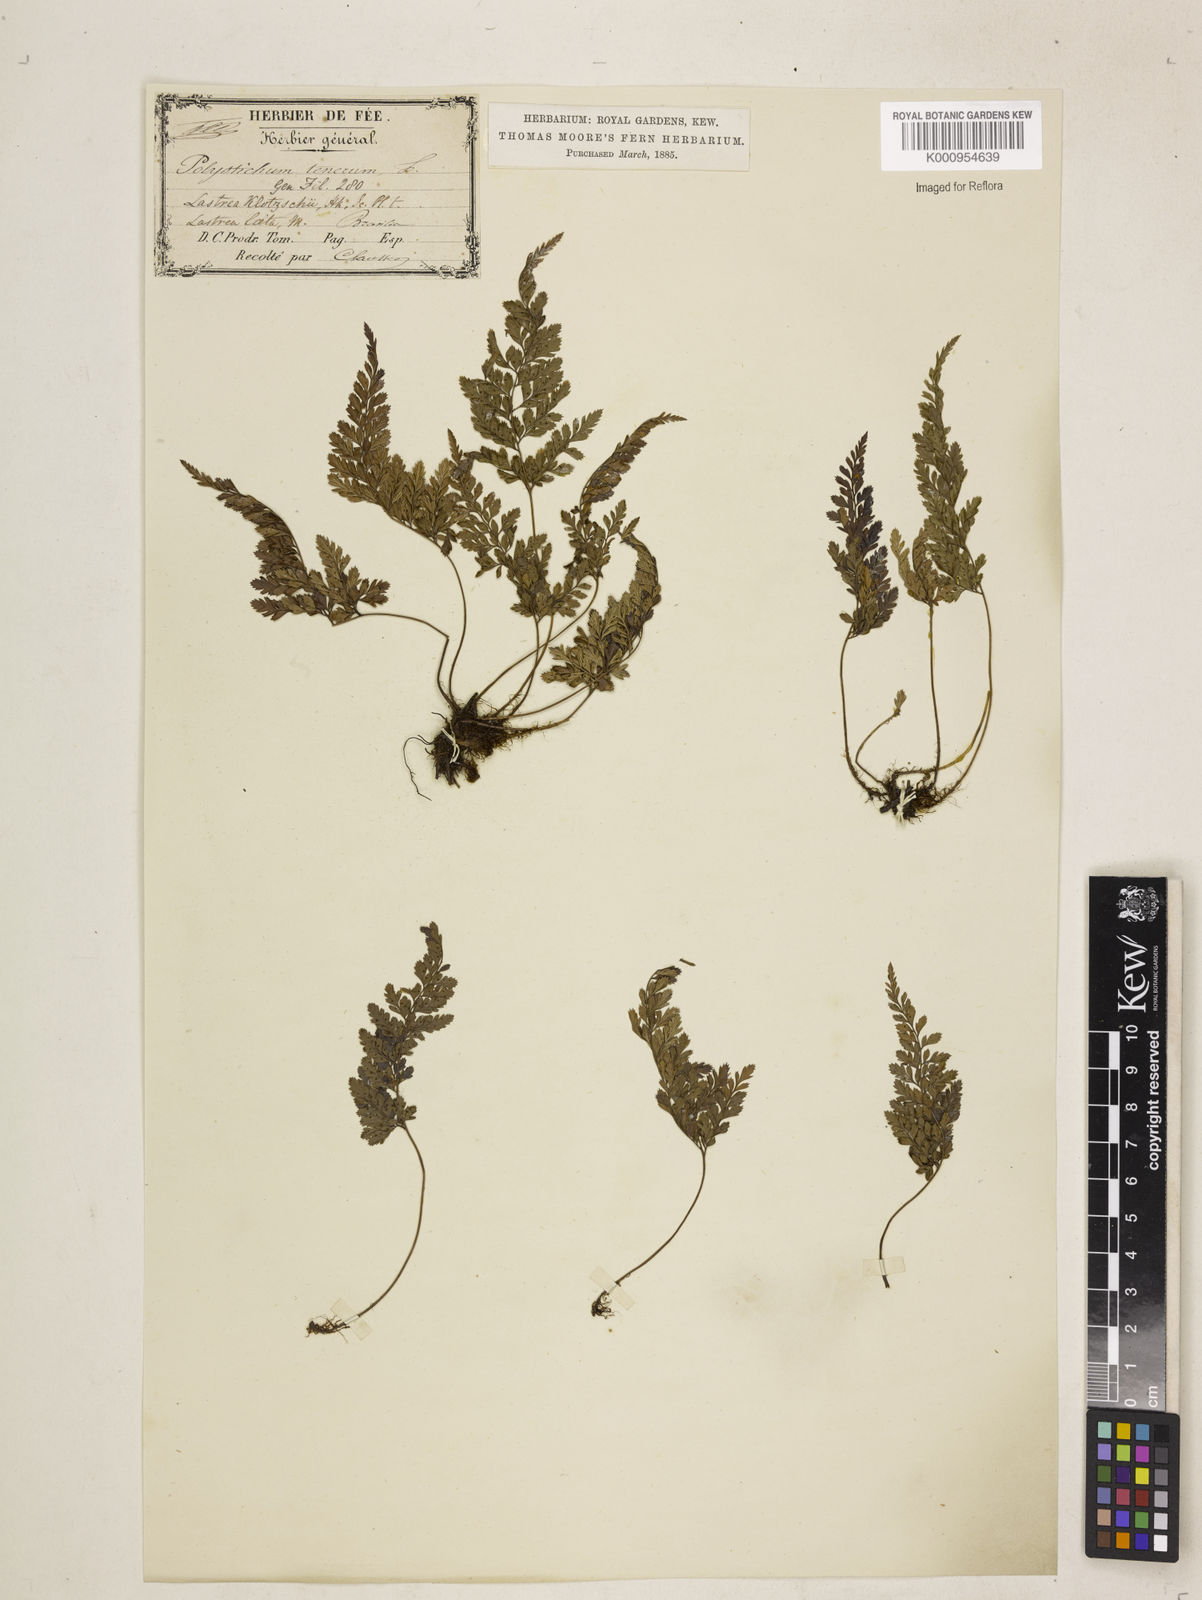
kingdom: Plantae
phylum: Tracheophyta
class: Polypodiopsida
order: Polypodiales
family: Dryopteridaceae
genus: Arachniodes
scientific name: Arachniodes denticulata
